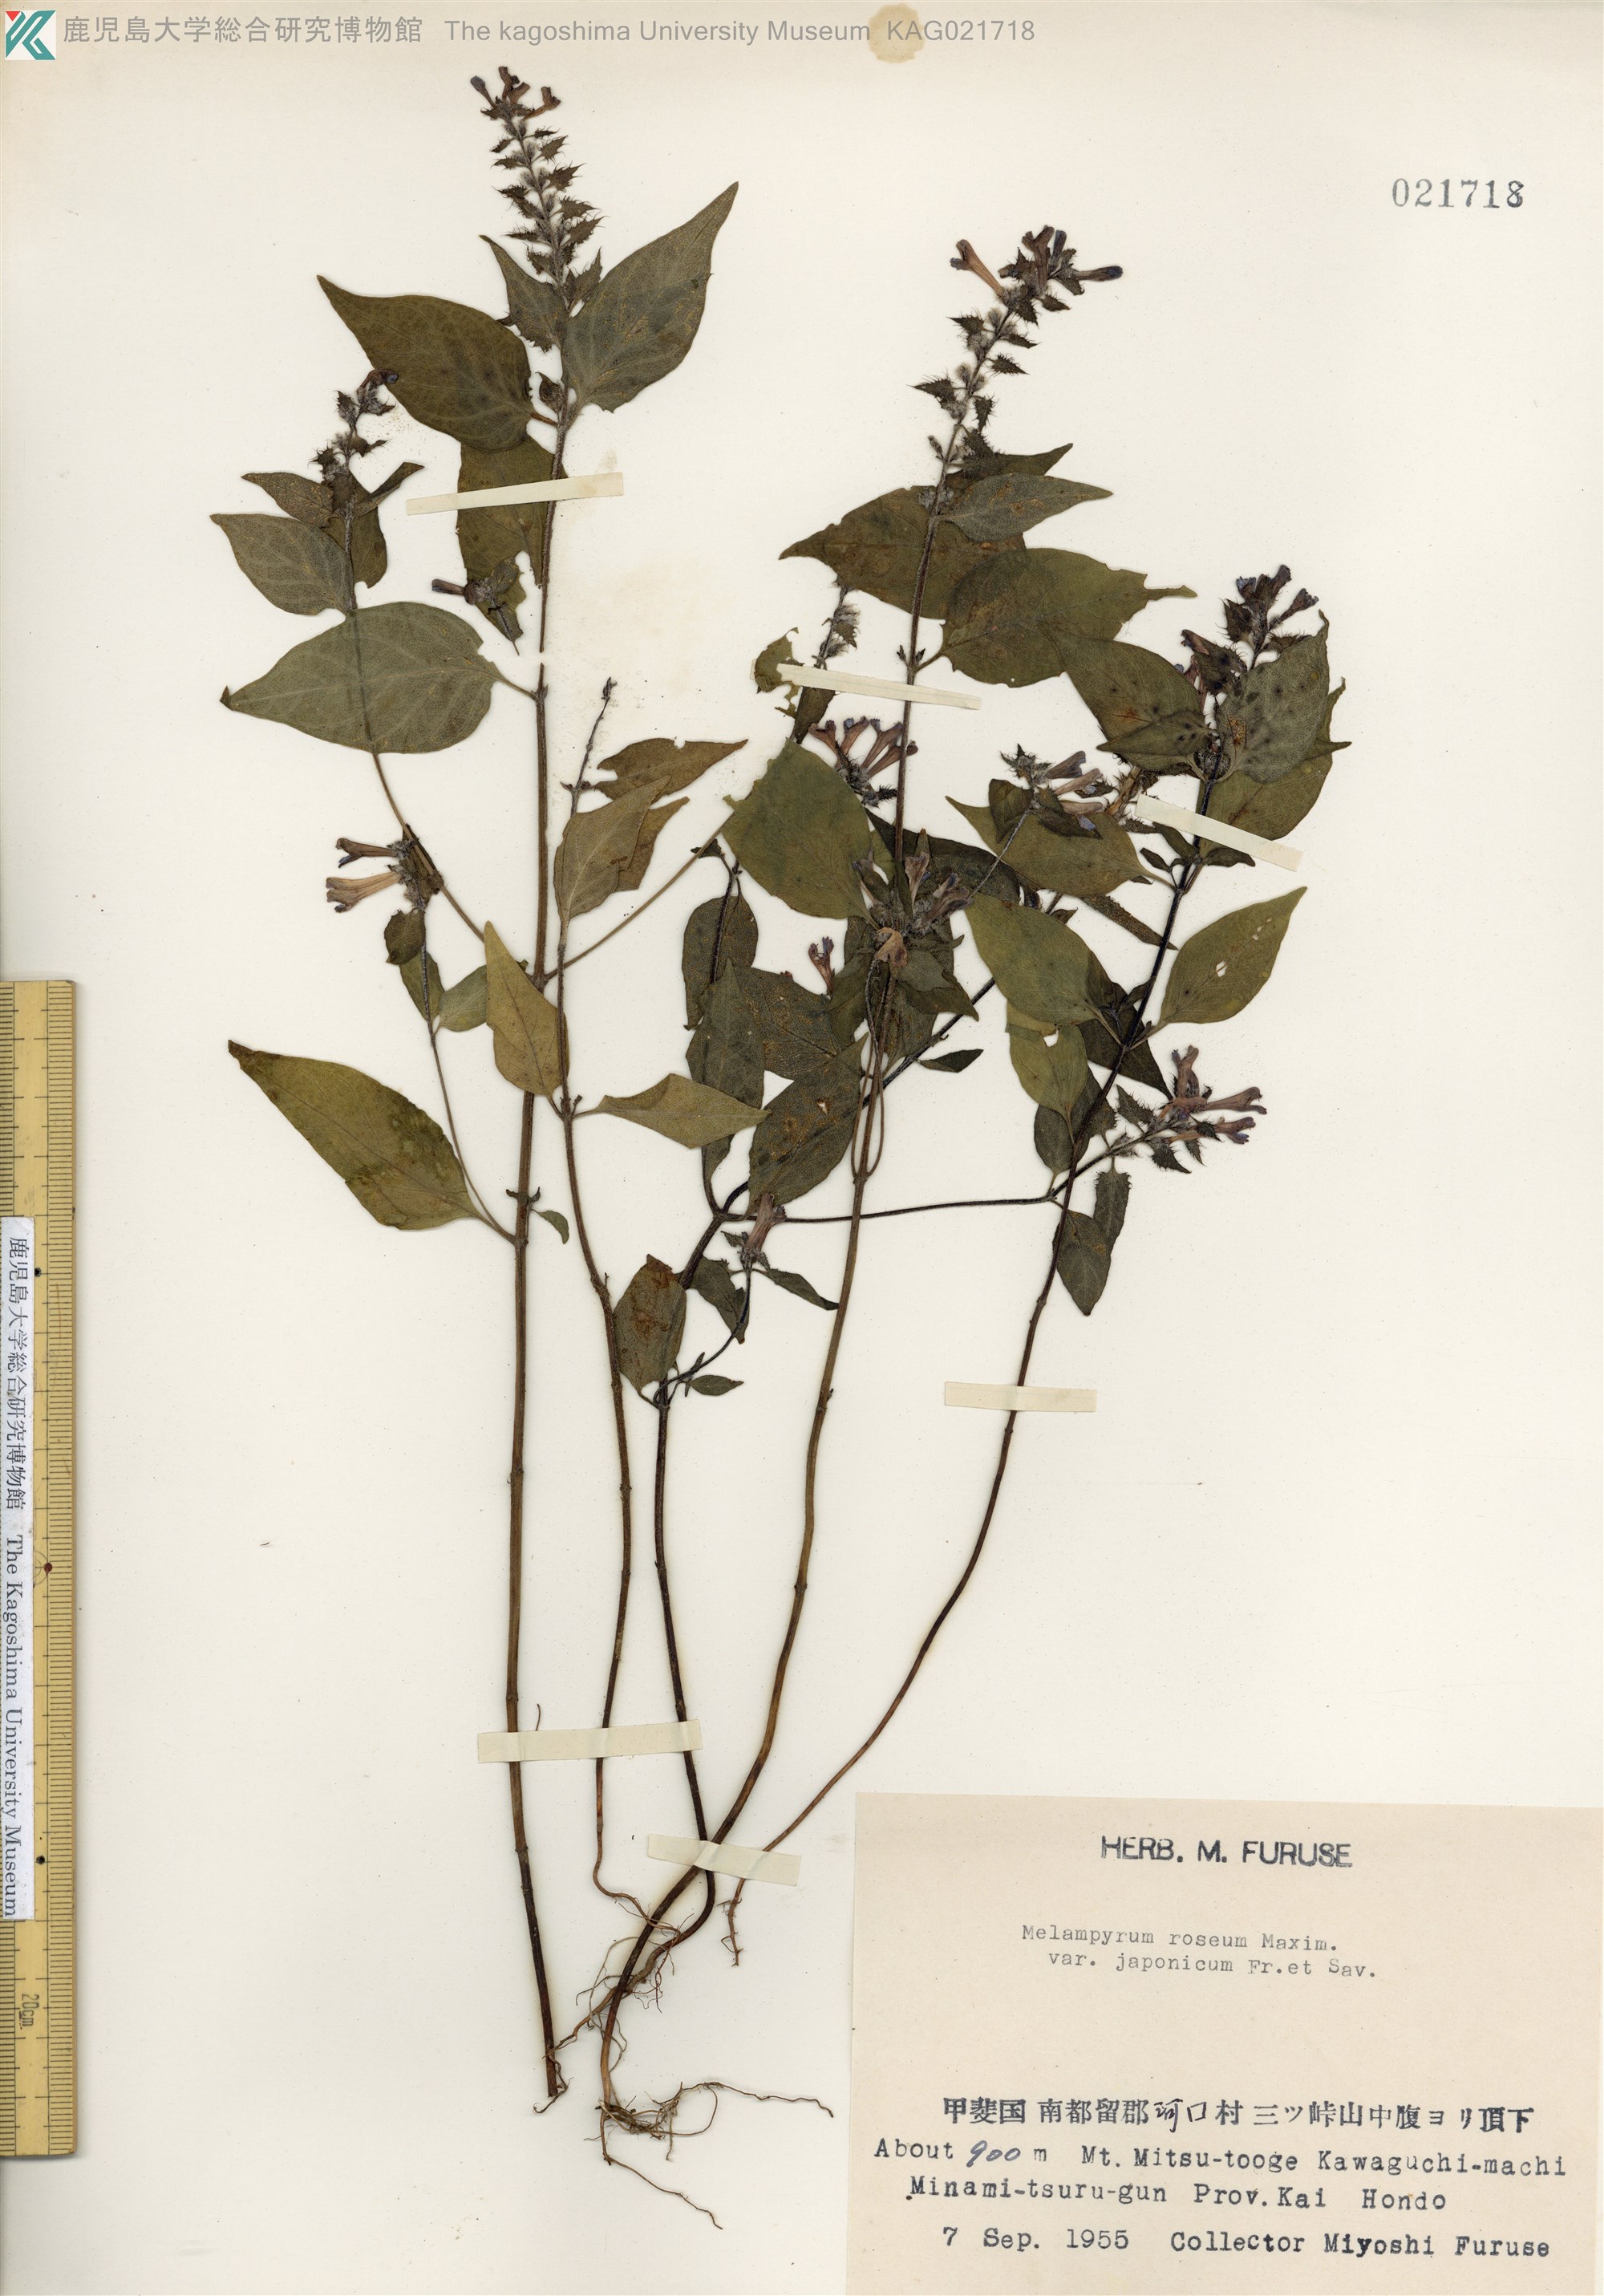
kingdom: Plantae
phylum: Tracheophyta
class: Magnoliopsida
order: Lamiales
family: Orobanchaceae
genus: Melampyrum
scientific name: Melampyrum roseum
